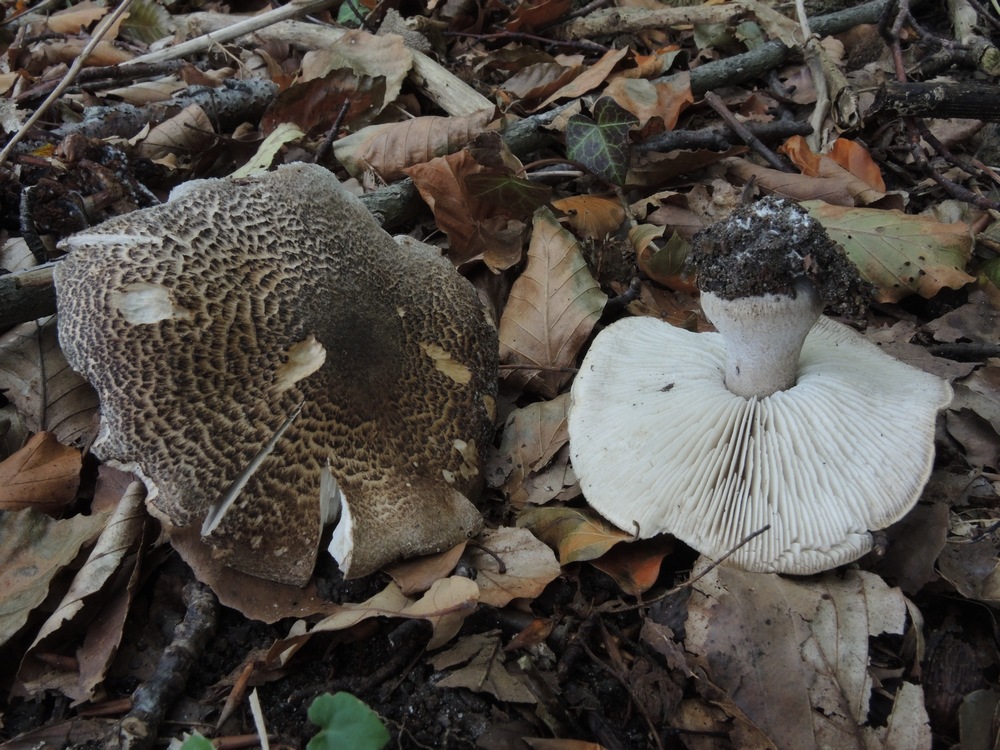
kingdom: Fungi
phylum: Basidiomycota
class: Agaricomycetes
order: Agaricales
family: Tricholomataceae
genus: Tricholoma
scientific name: Tricholoma basirubens
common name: rødfodet ridderhat
